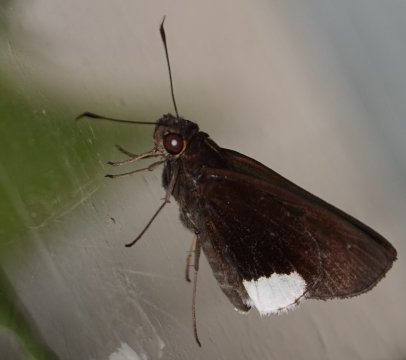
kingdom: Animalia
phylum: Arthropoda
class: Insecta
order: Lepidoptera
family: Hesperiidae
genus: Cobalus
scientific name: Cobalus virbius
